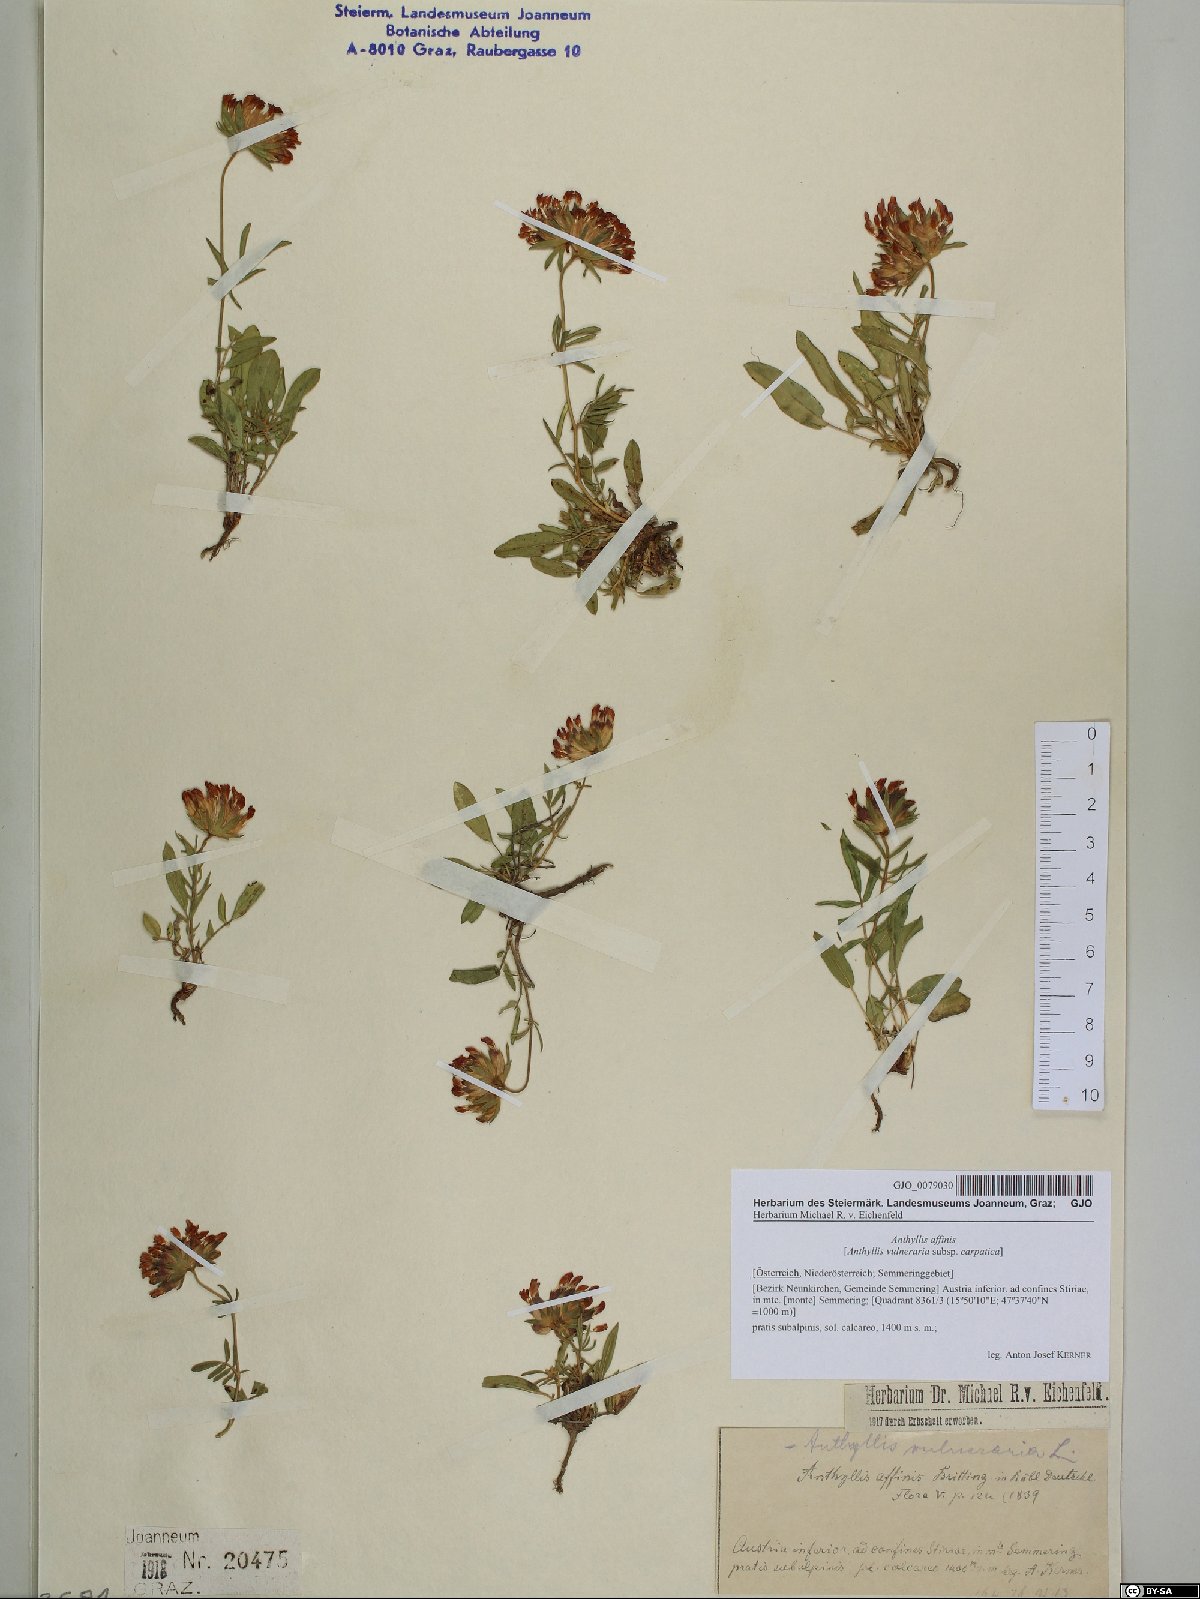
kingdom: Plantae
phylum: Tracheophyta
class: Magnoliopsida
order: Fabales
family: Fabaceae
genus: Anthyllis
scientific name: Anthyllis vulneraria
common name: Kidney vetch
